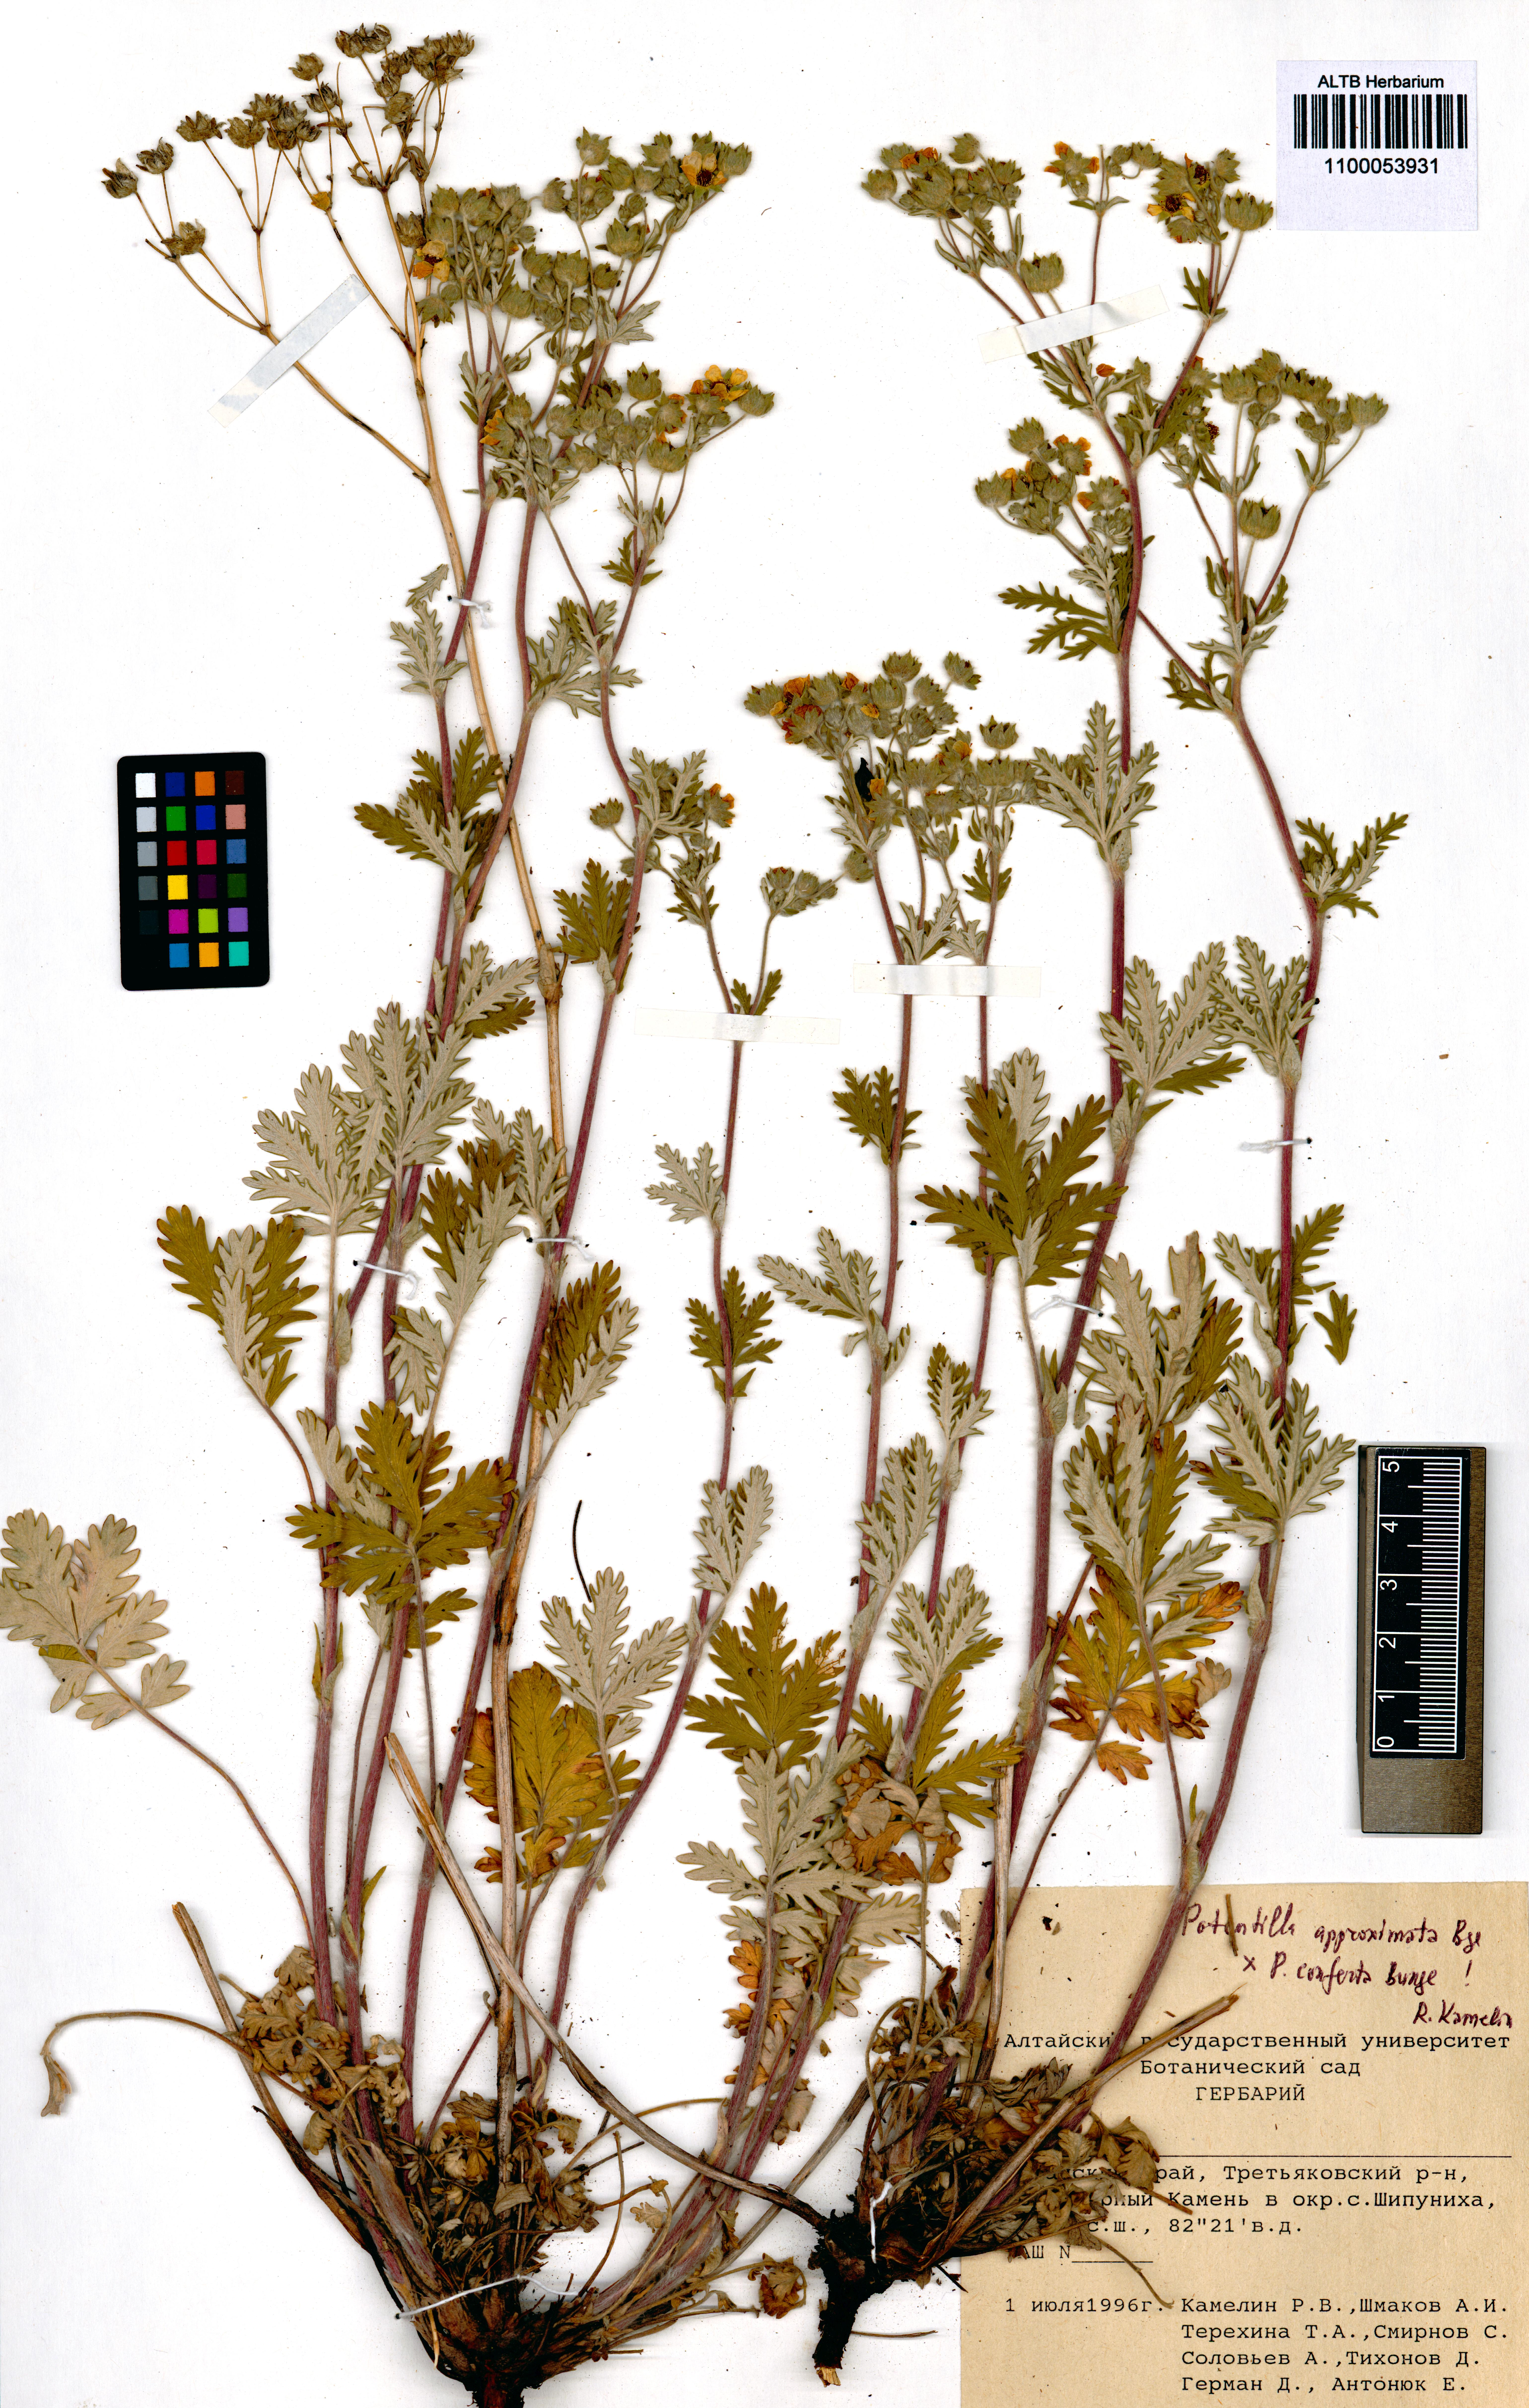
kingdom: Plantae
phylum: Tracheophyta
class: Magnoliopsida
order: Rosales
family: Rosaceae
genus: Potentilla
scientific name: Potentilla conferta
